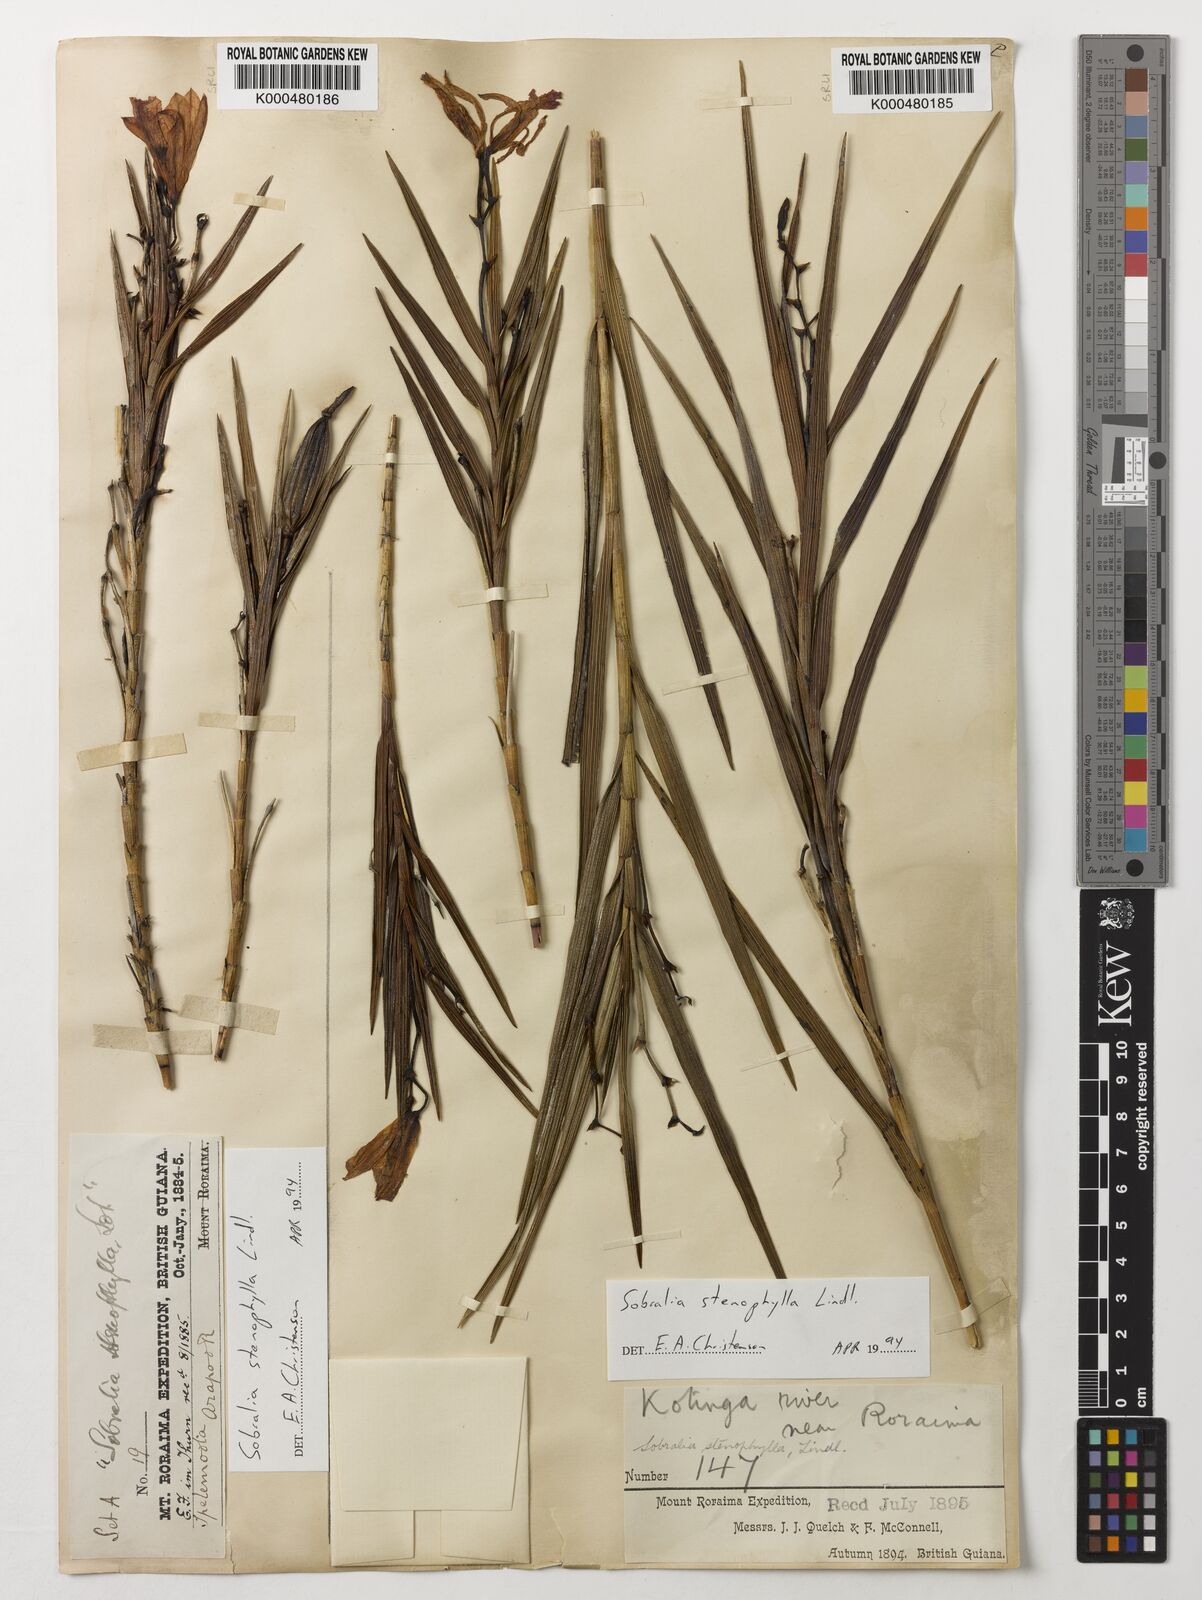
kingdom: Plantae
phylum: Tracheophyta
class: Liliopsida
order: Asparagales
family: Orchidaceae
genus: Sobralia
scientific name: Sobralia stenophylla
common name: Thin leafed sobralia
